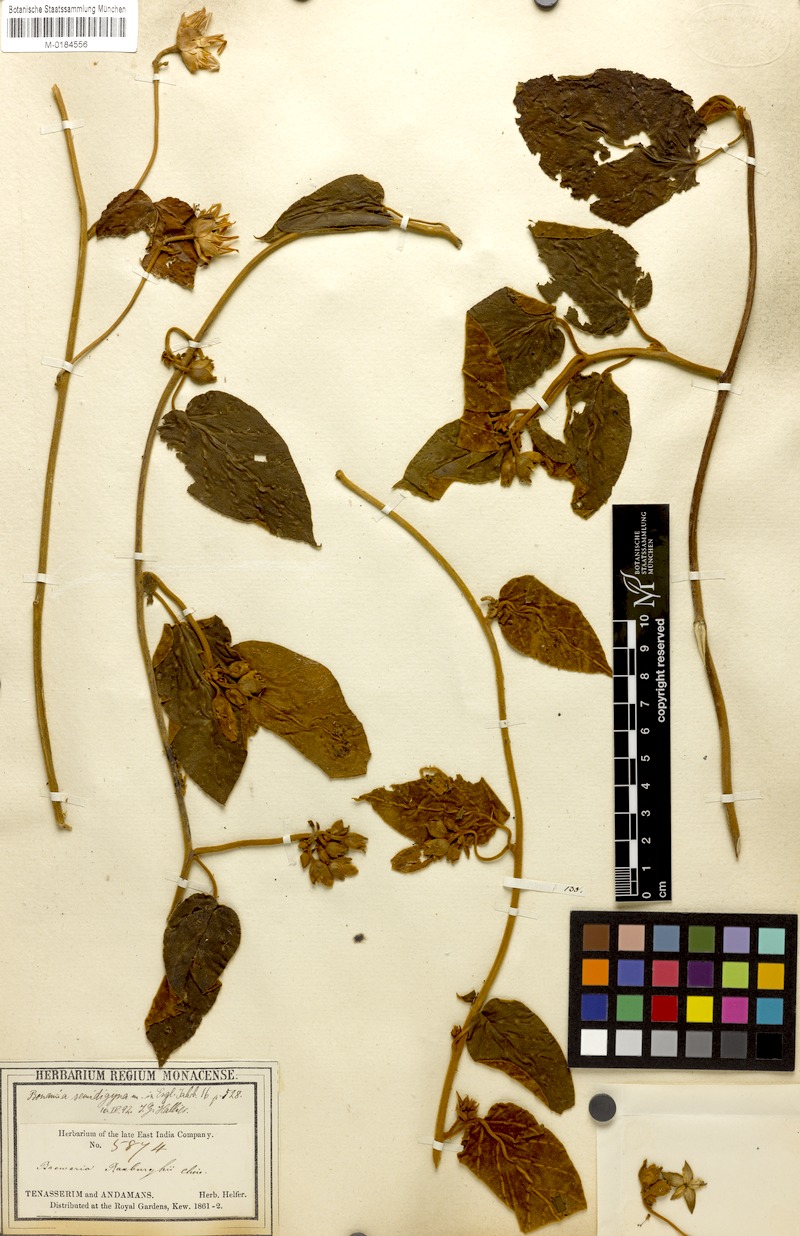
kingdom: Plantae
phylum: Tracheophyta
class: Magnoliopsida
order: Solanales
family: Convolvulaceae
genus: Bonamia
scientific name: Bonamia semidigyna
